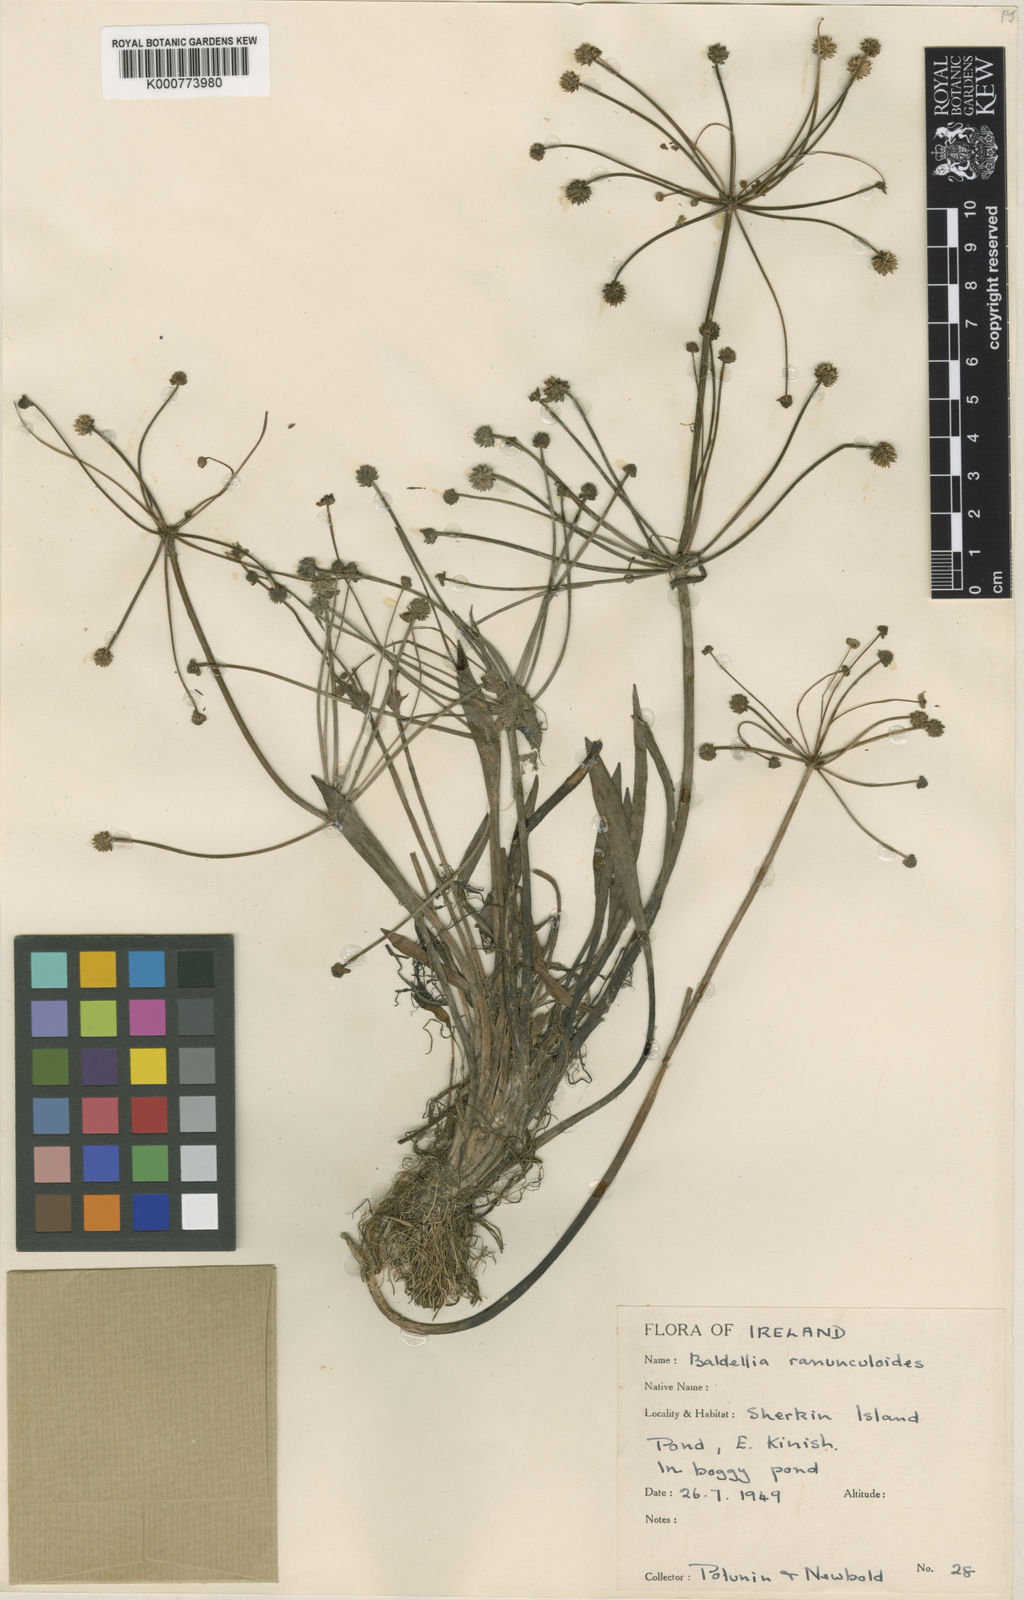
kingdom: Plantae
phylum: Tracheophyta
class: Liliopsida
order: Alismatales
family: Alismataceae
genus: Baldellia
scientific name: Baldellia ranunculoides
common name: Lesser water-plantain
